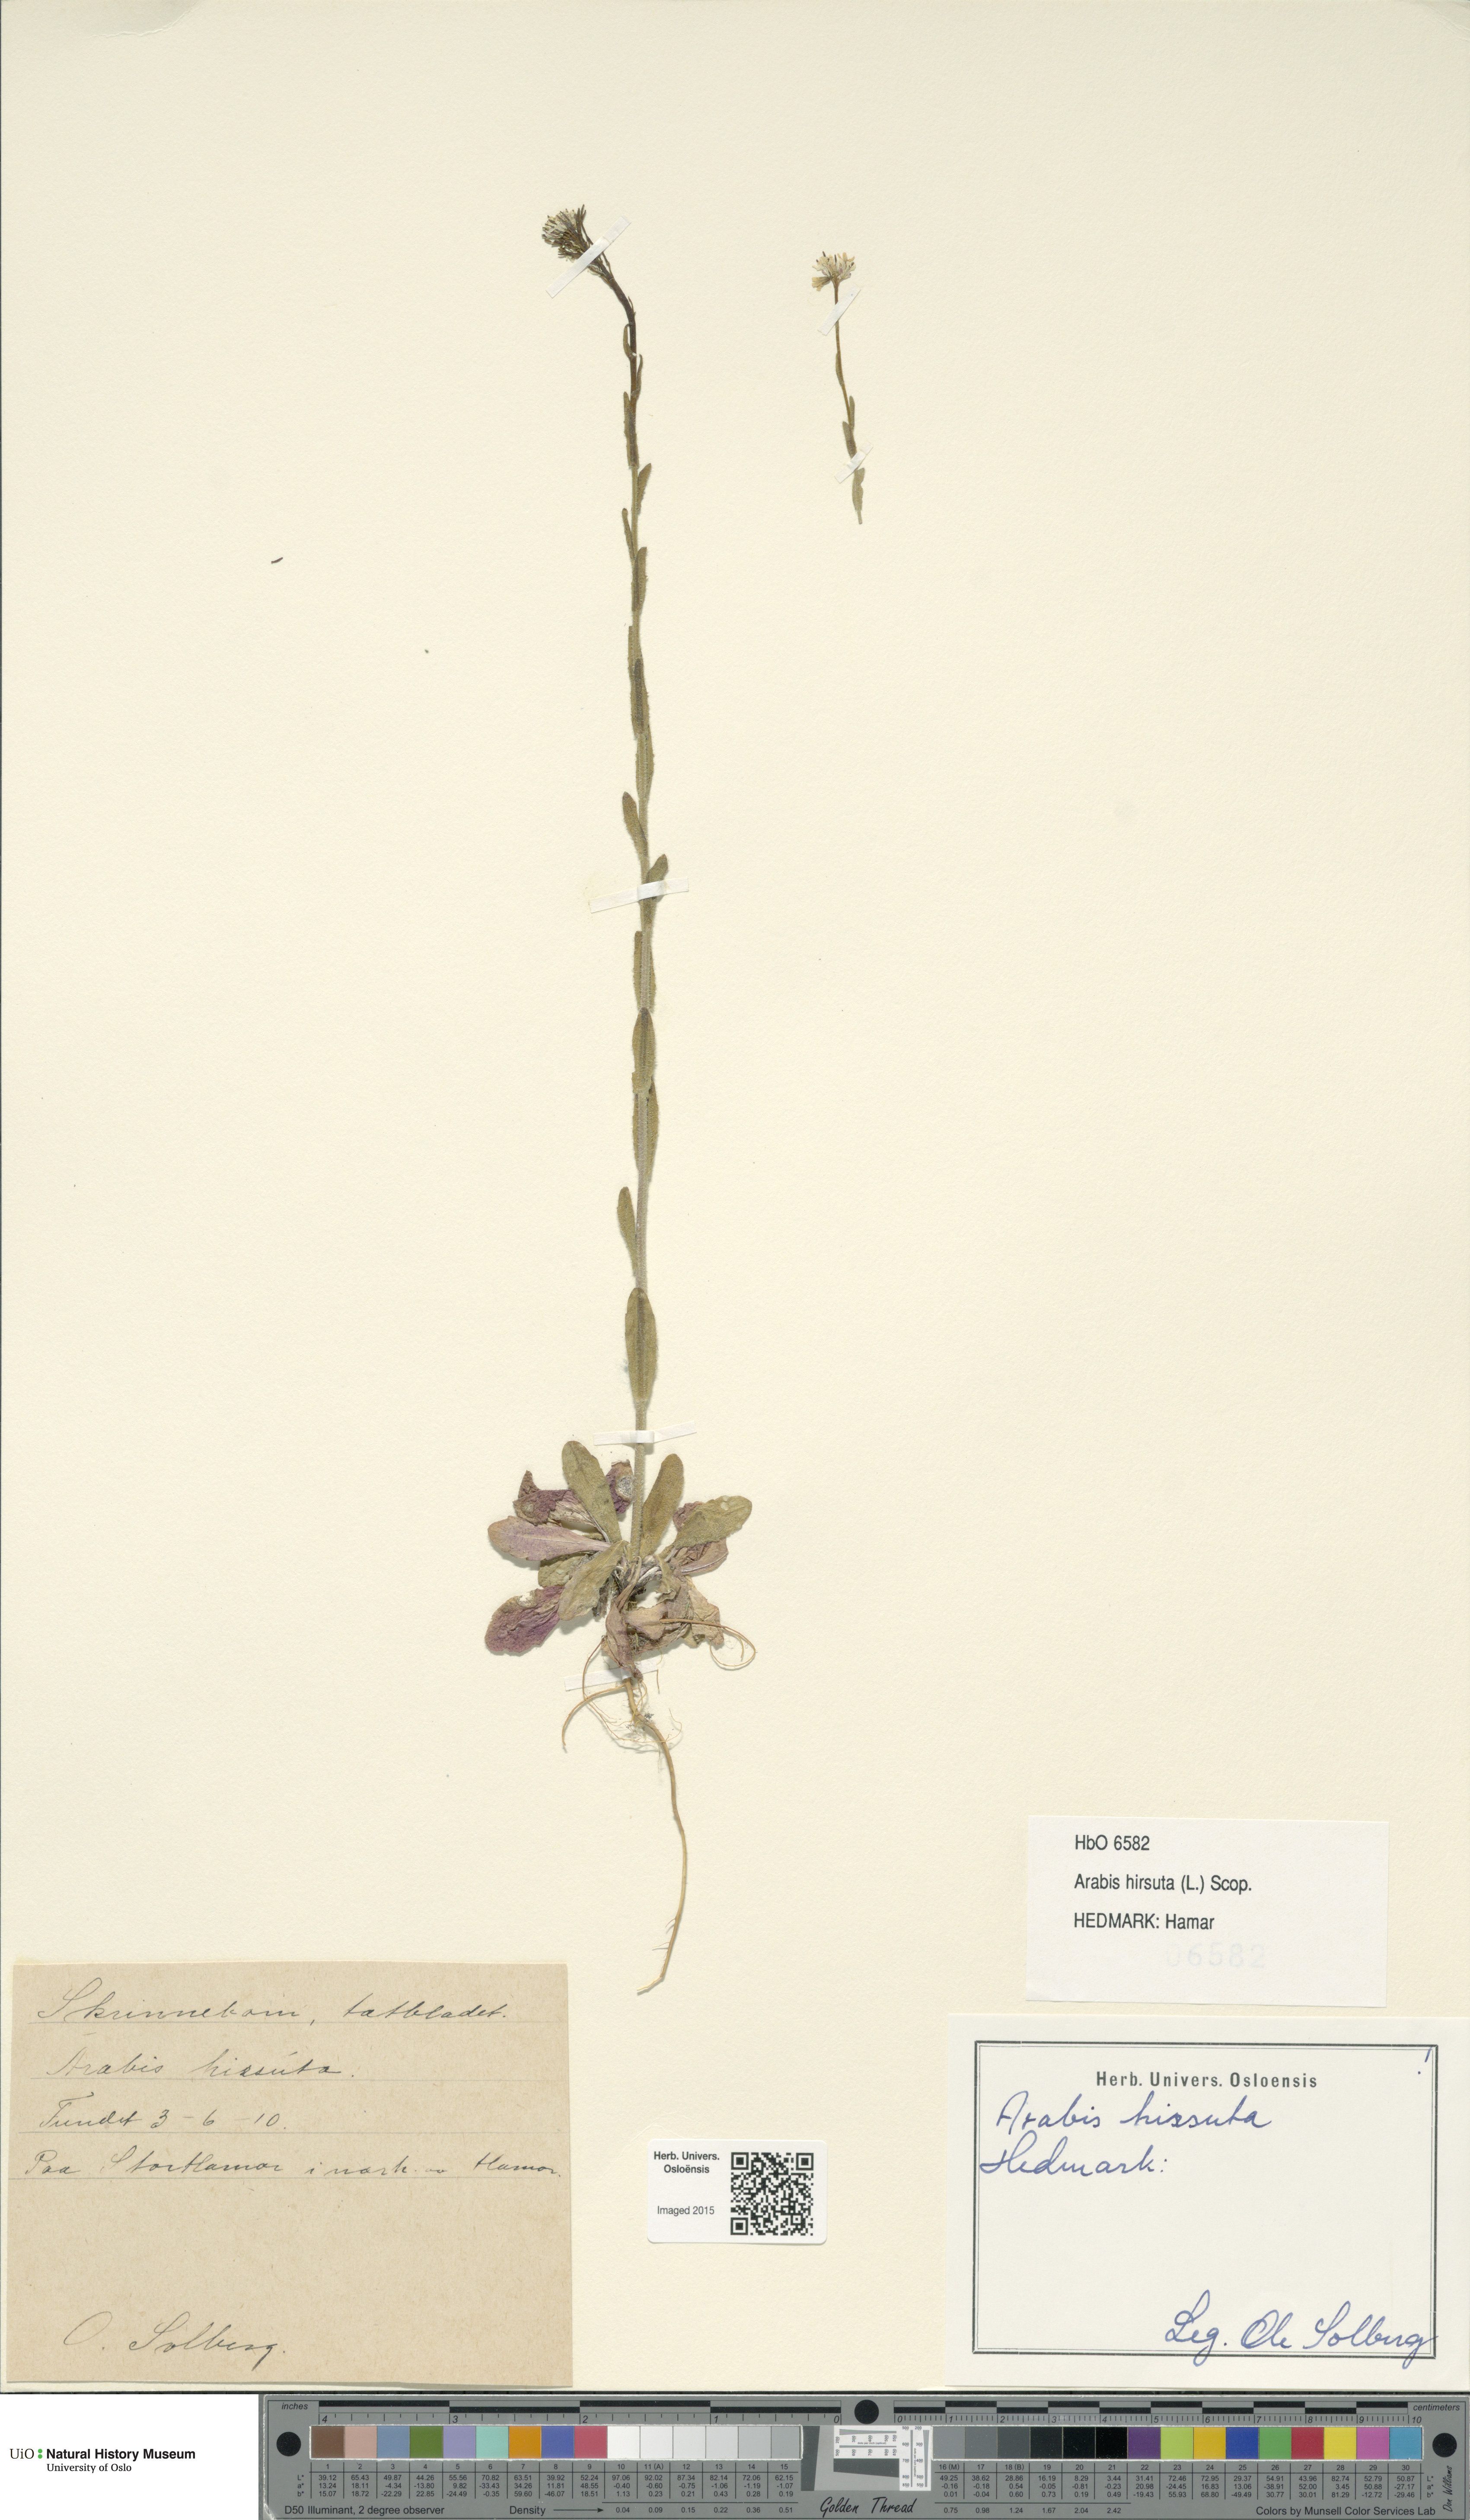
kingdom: Plantae
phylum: Tracheophyta
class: Magnoliopsida
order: Brassicales
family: Brassicaceae
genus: Arabis
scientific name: Arabis hirsuta
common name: Hairy rock-cress
